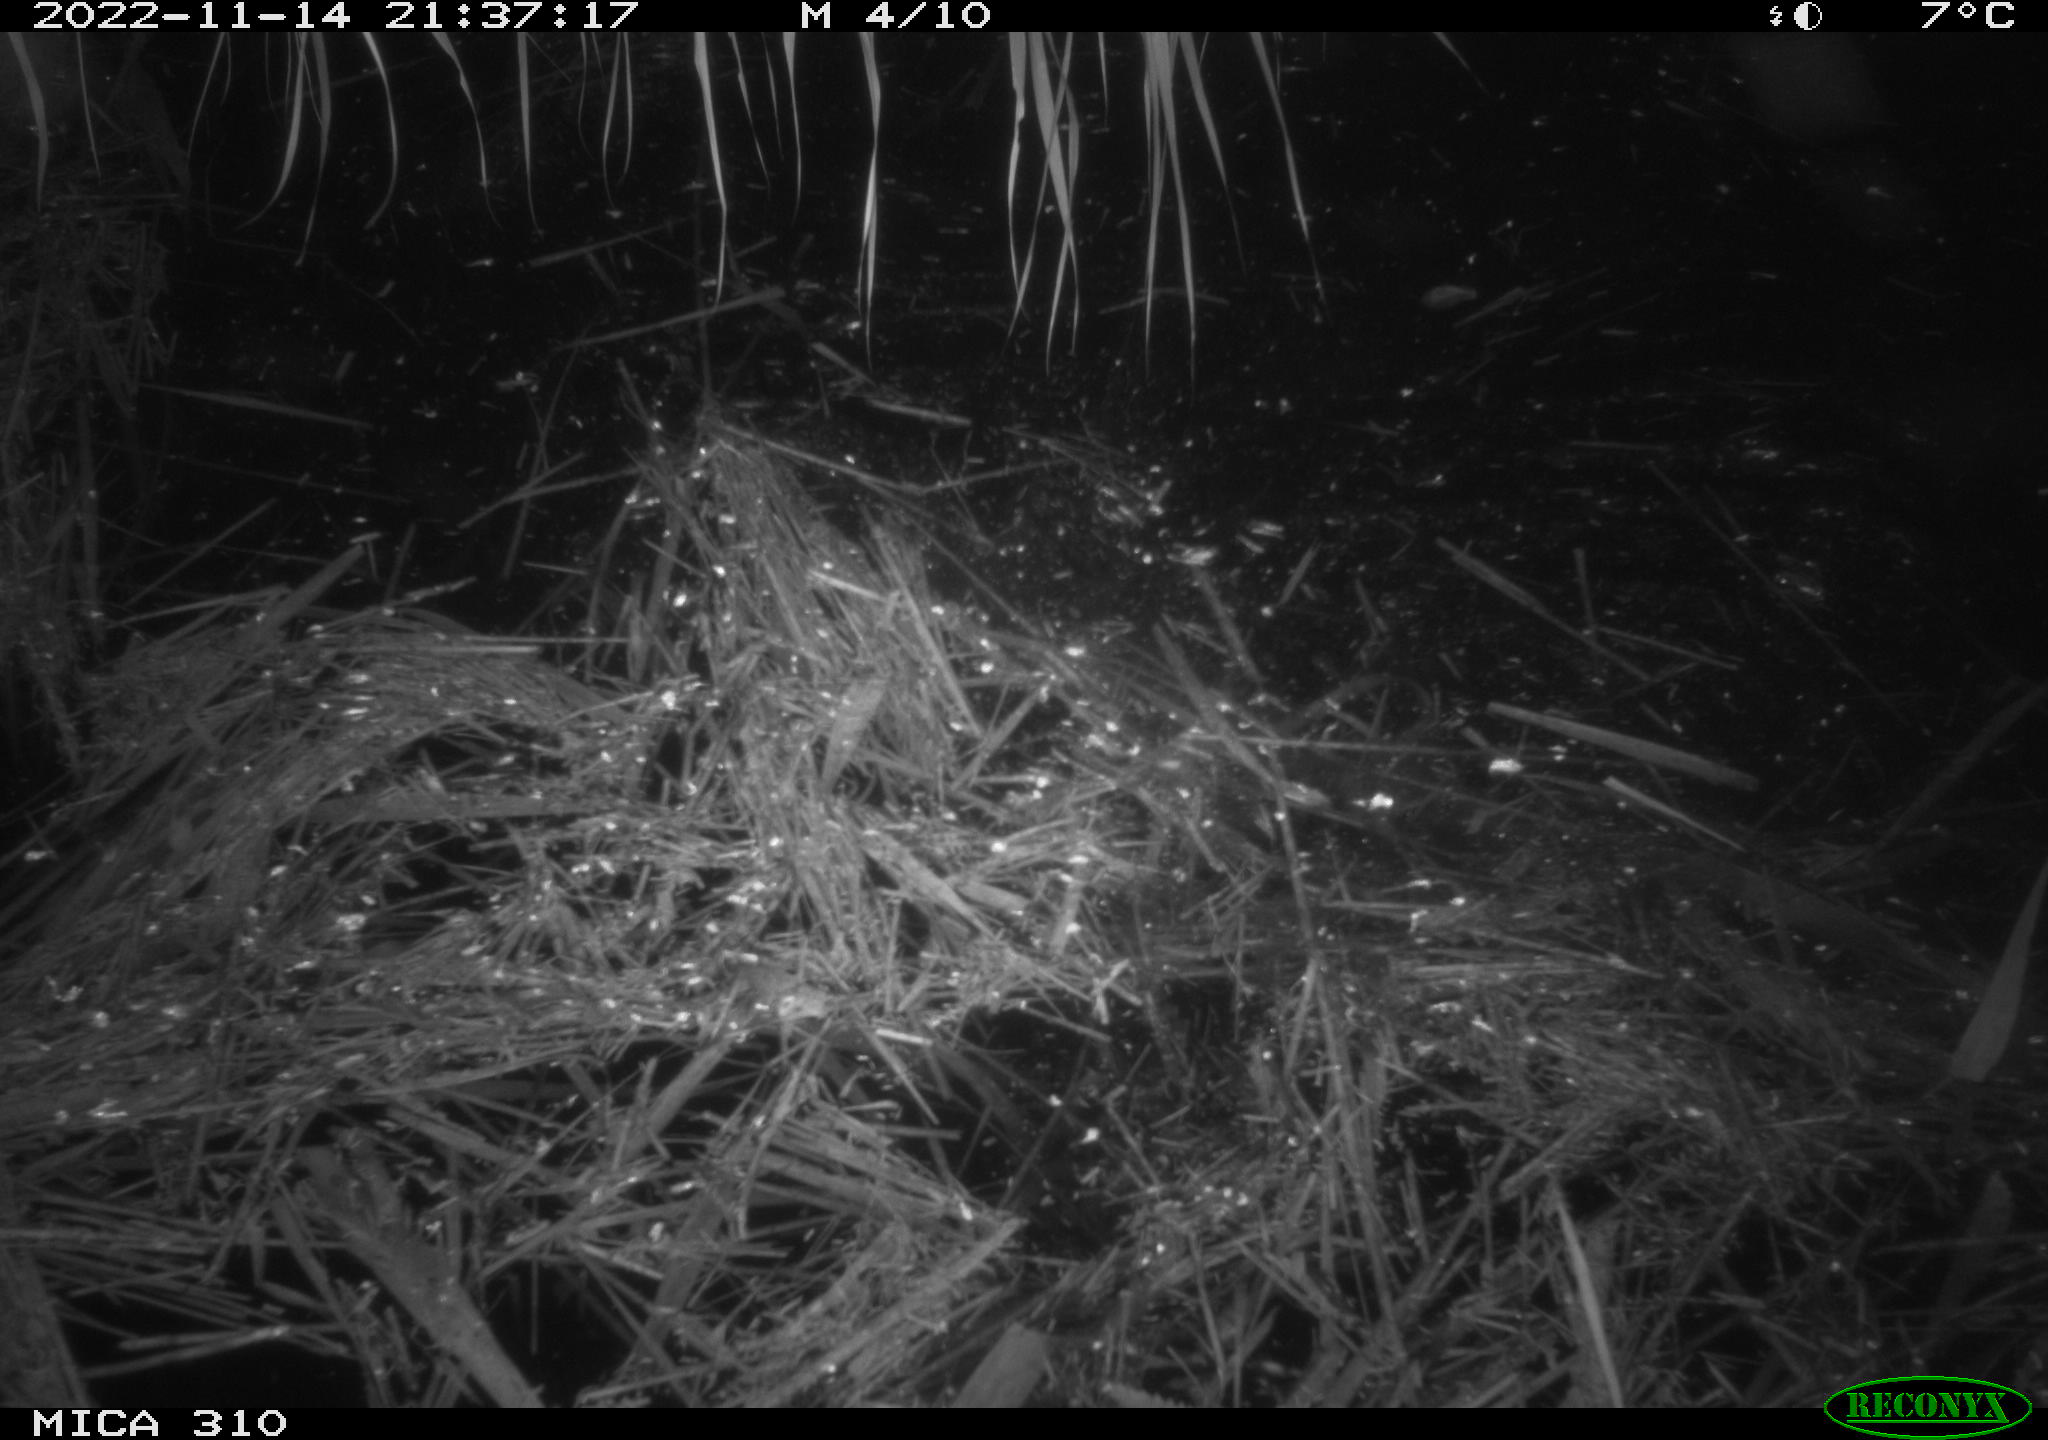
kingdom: Animalia
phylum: Chordata
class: Mammalia
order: Rodentia
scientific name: Rodentia
